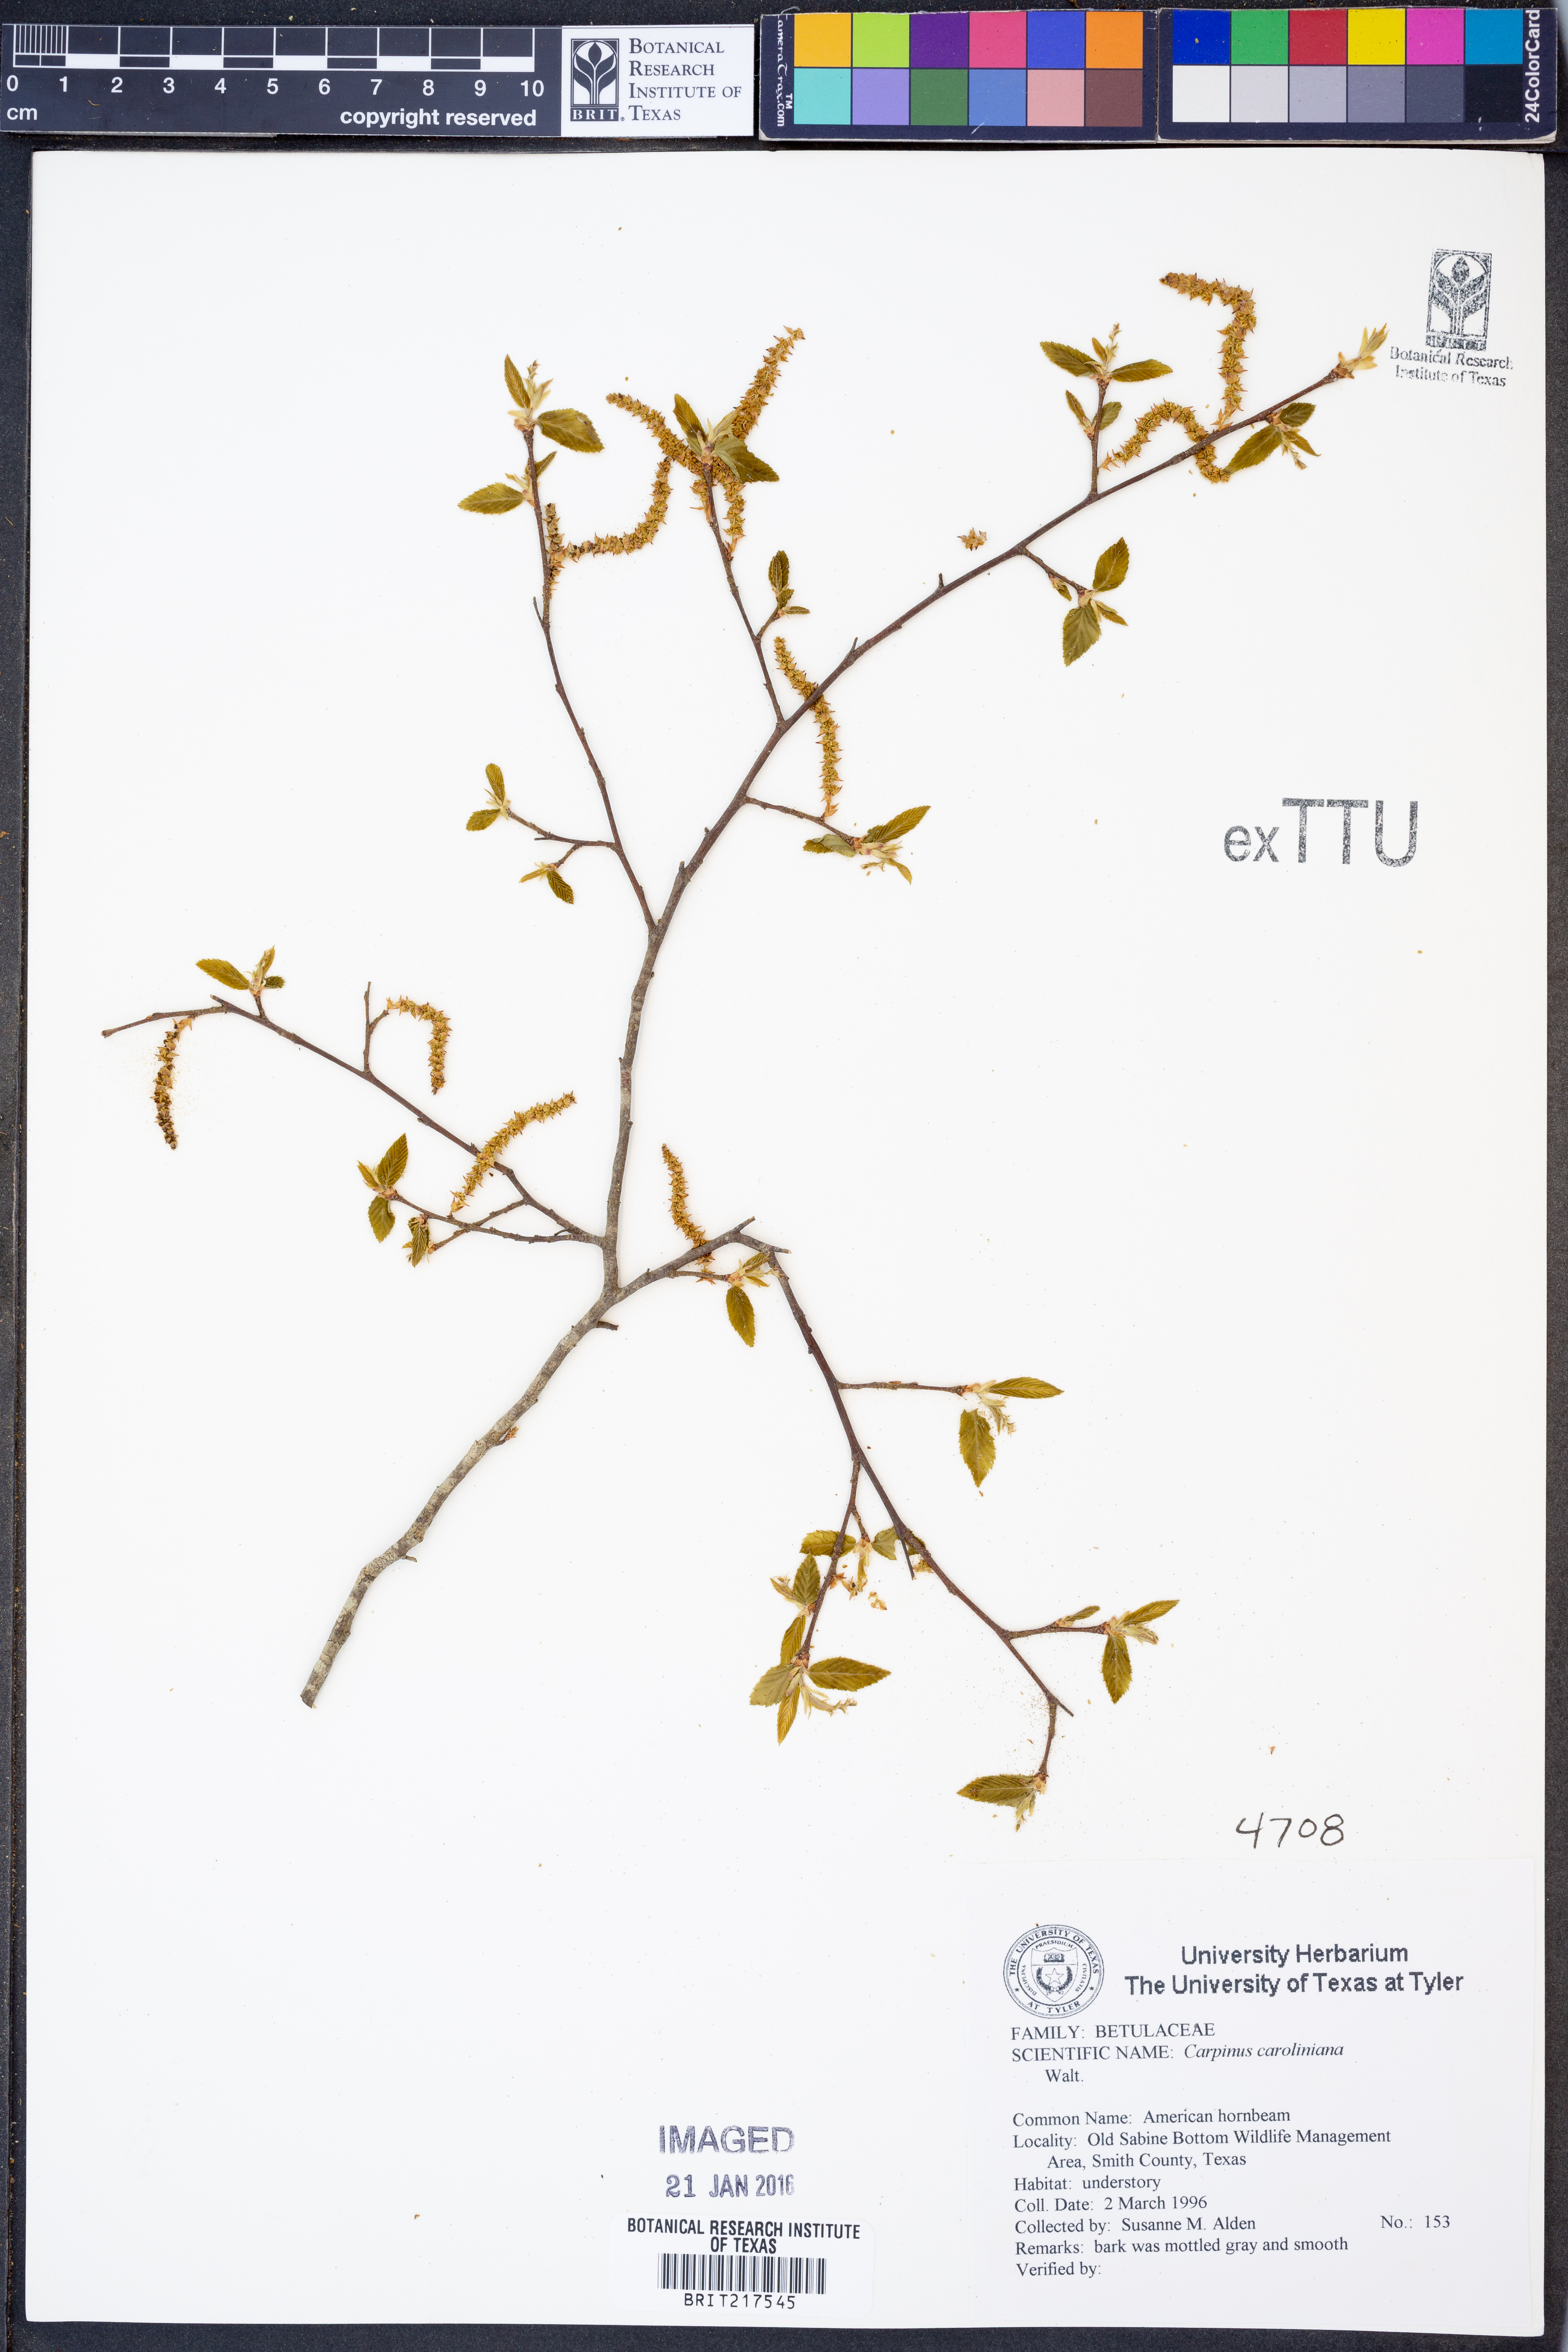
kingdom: Plantae
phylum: Tracheophyta
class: Magnoliopsida
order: Fagales
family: Betulaceae
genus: Carpinus
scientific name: Carpinus caroliniana
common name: American hornbeam
